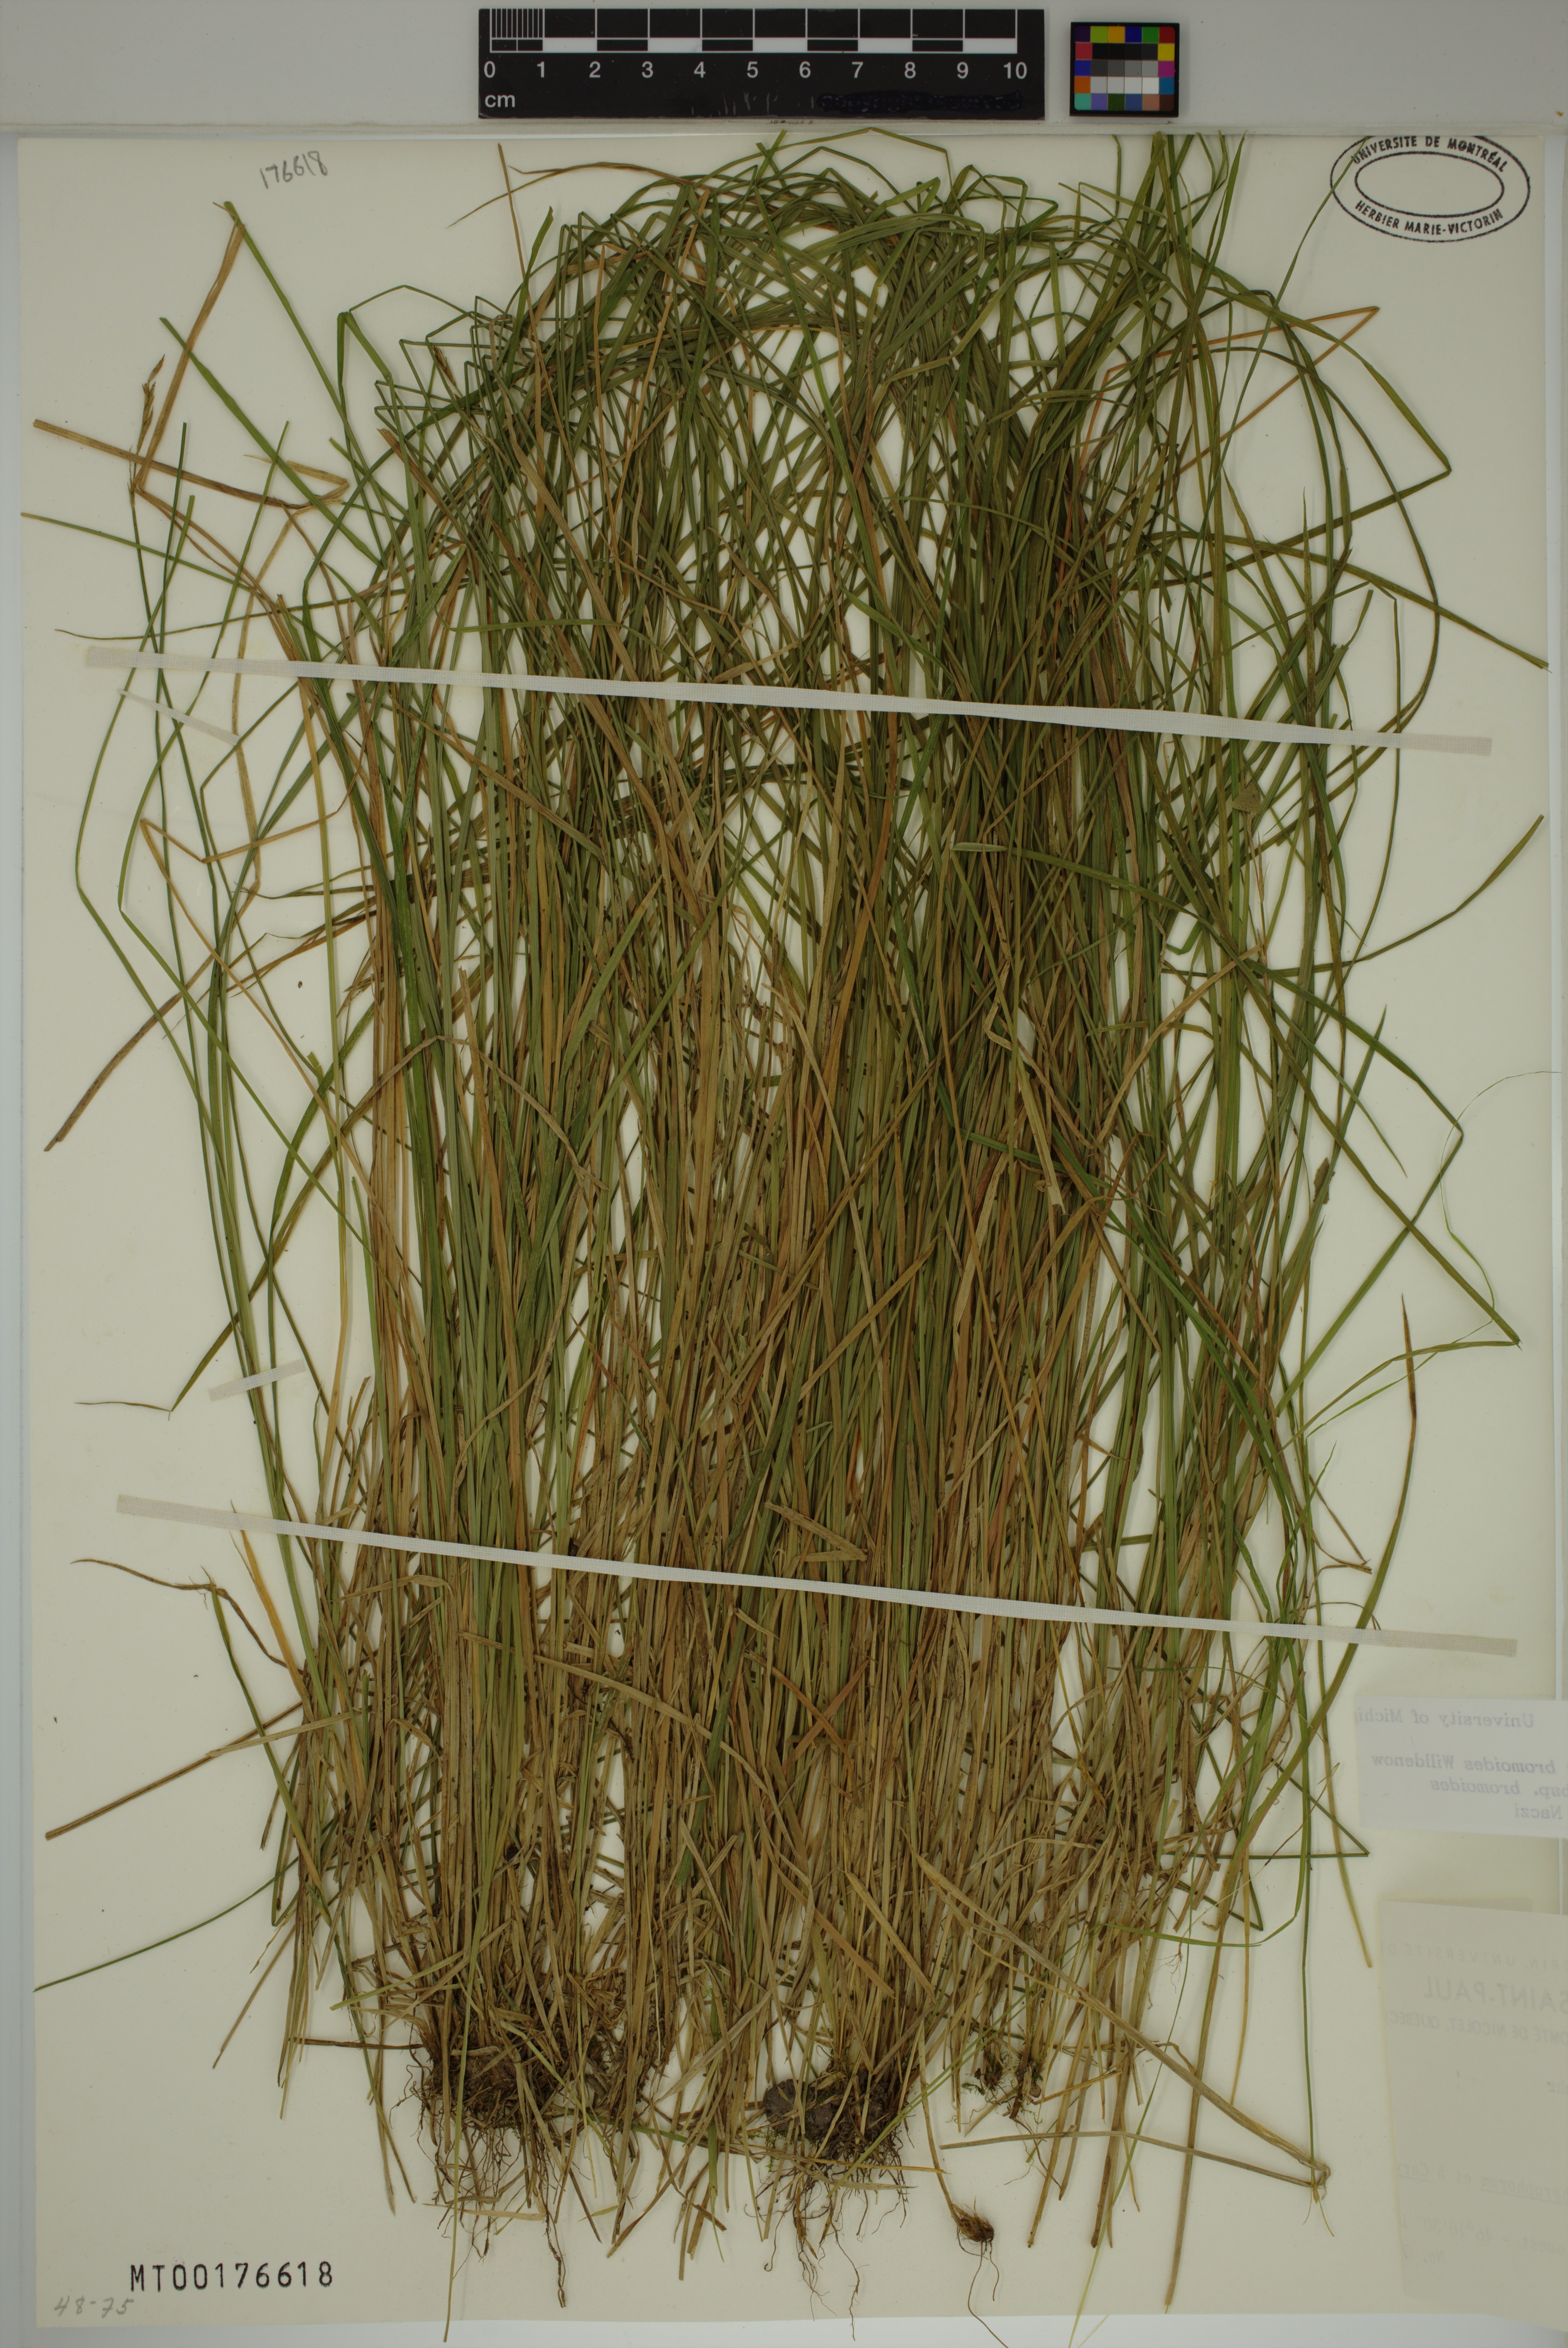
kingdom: Plantae
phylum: Tracheophyta
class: Liliopsida
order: Poales
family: Cyperaceae
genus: Carex
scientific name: Carex bromoides
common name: Brome hummock sedge
